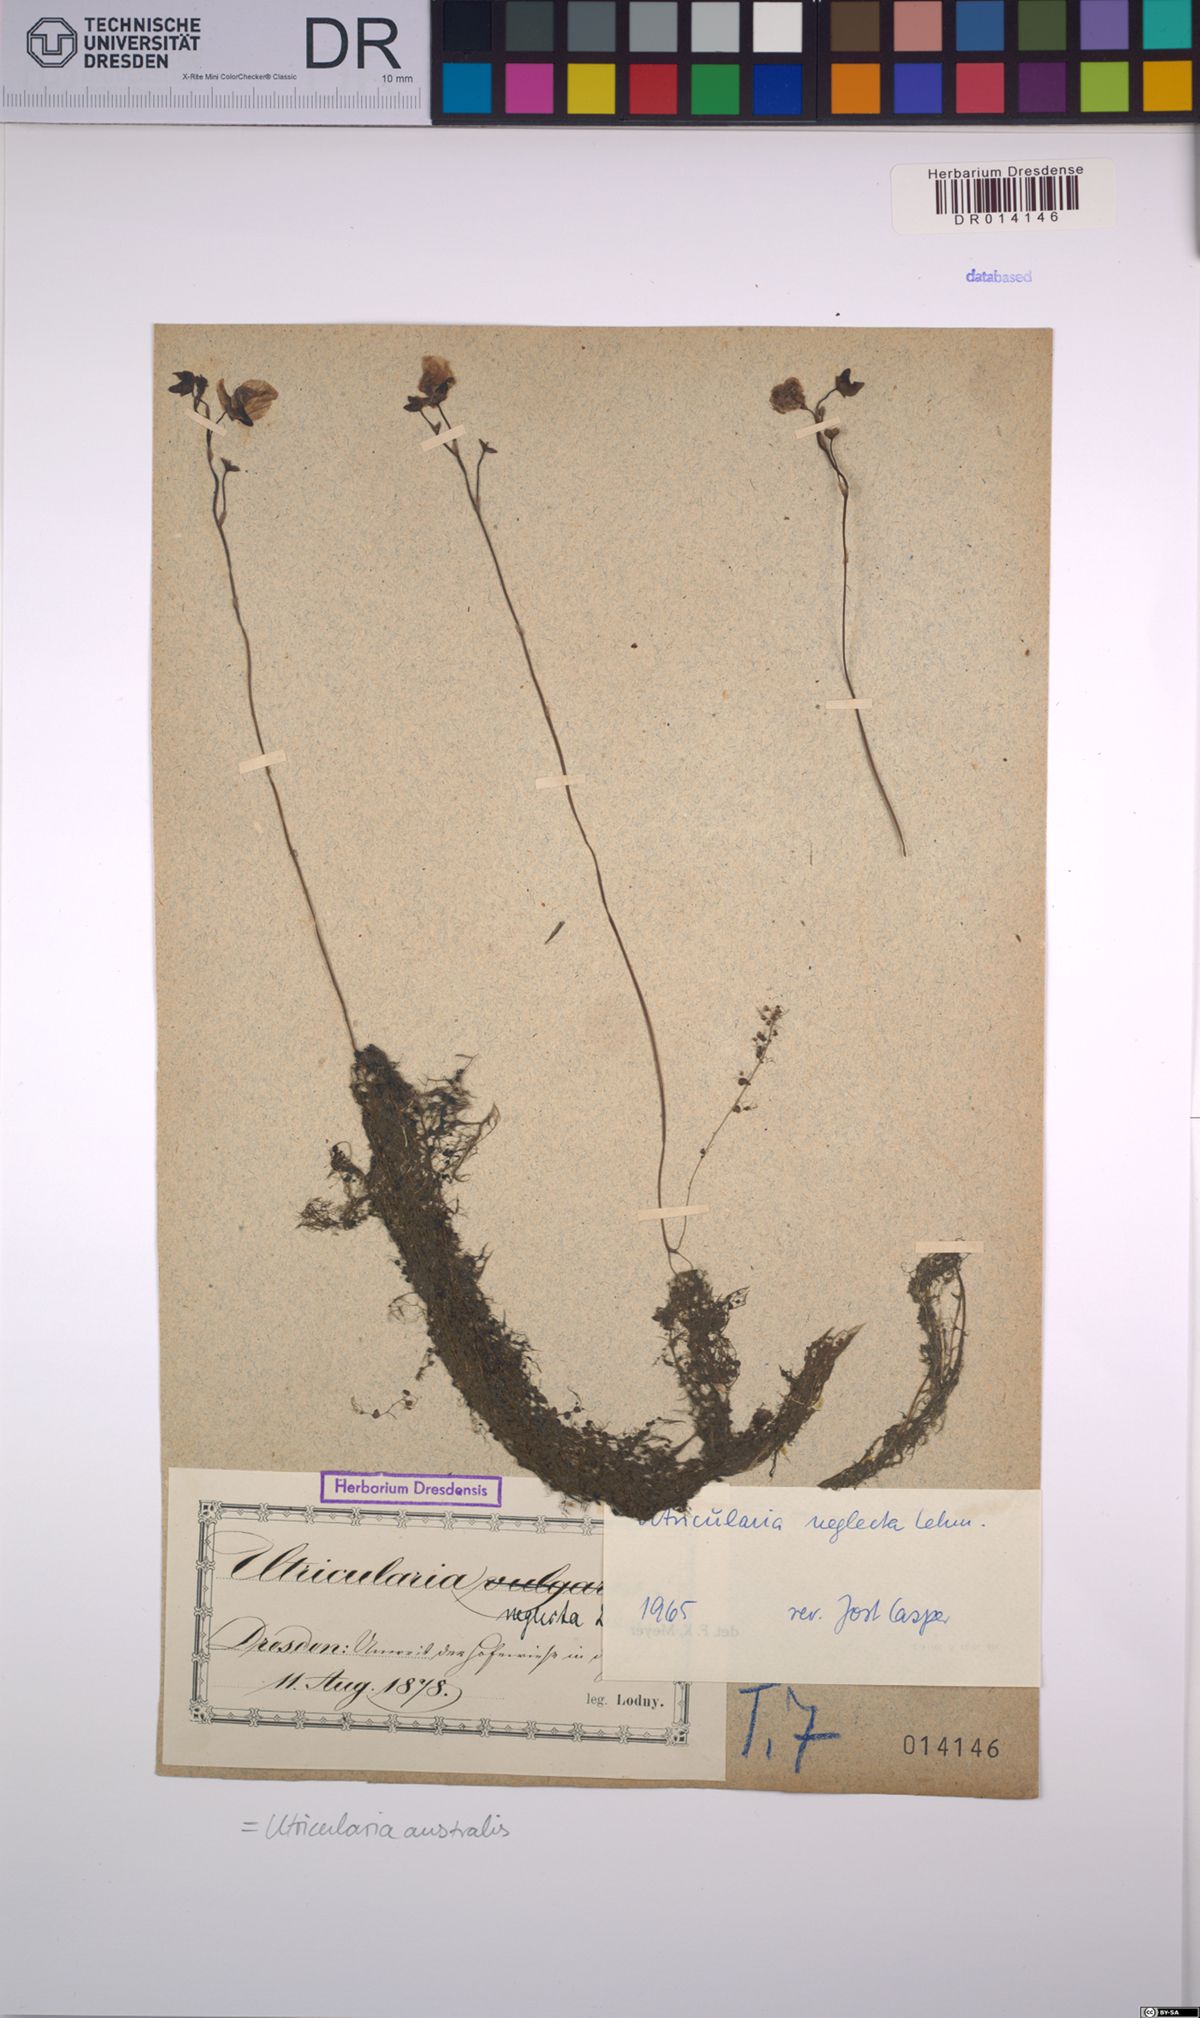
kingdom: Plantae
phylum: Tracheophyta
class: Magnoliopsida
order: Lamiales
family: Lentibulariaceae
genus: Utricularia
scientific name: Utricularia australis
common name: Bladderwort
